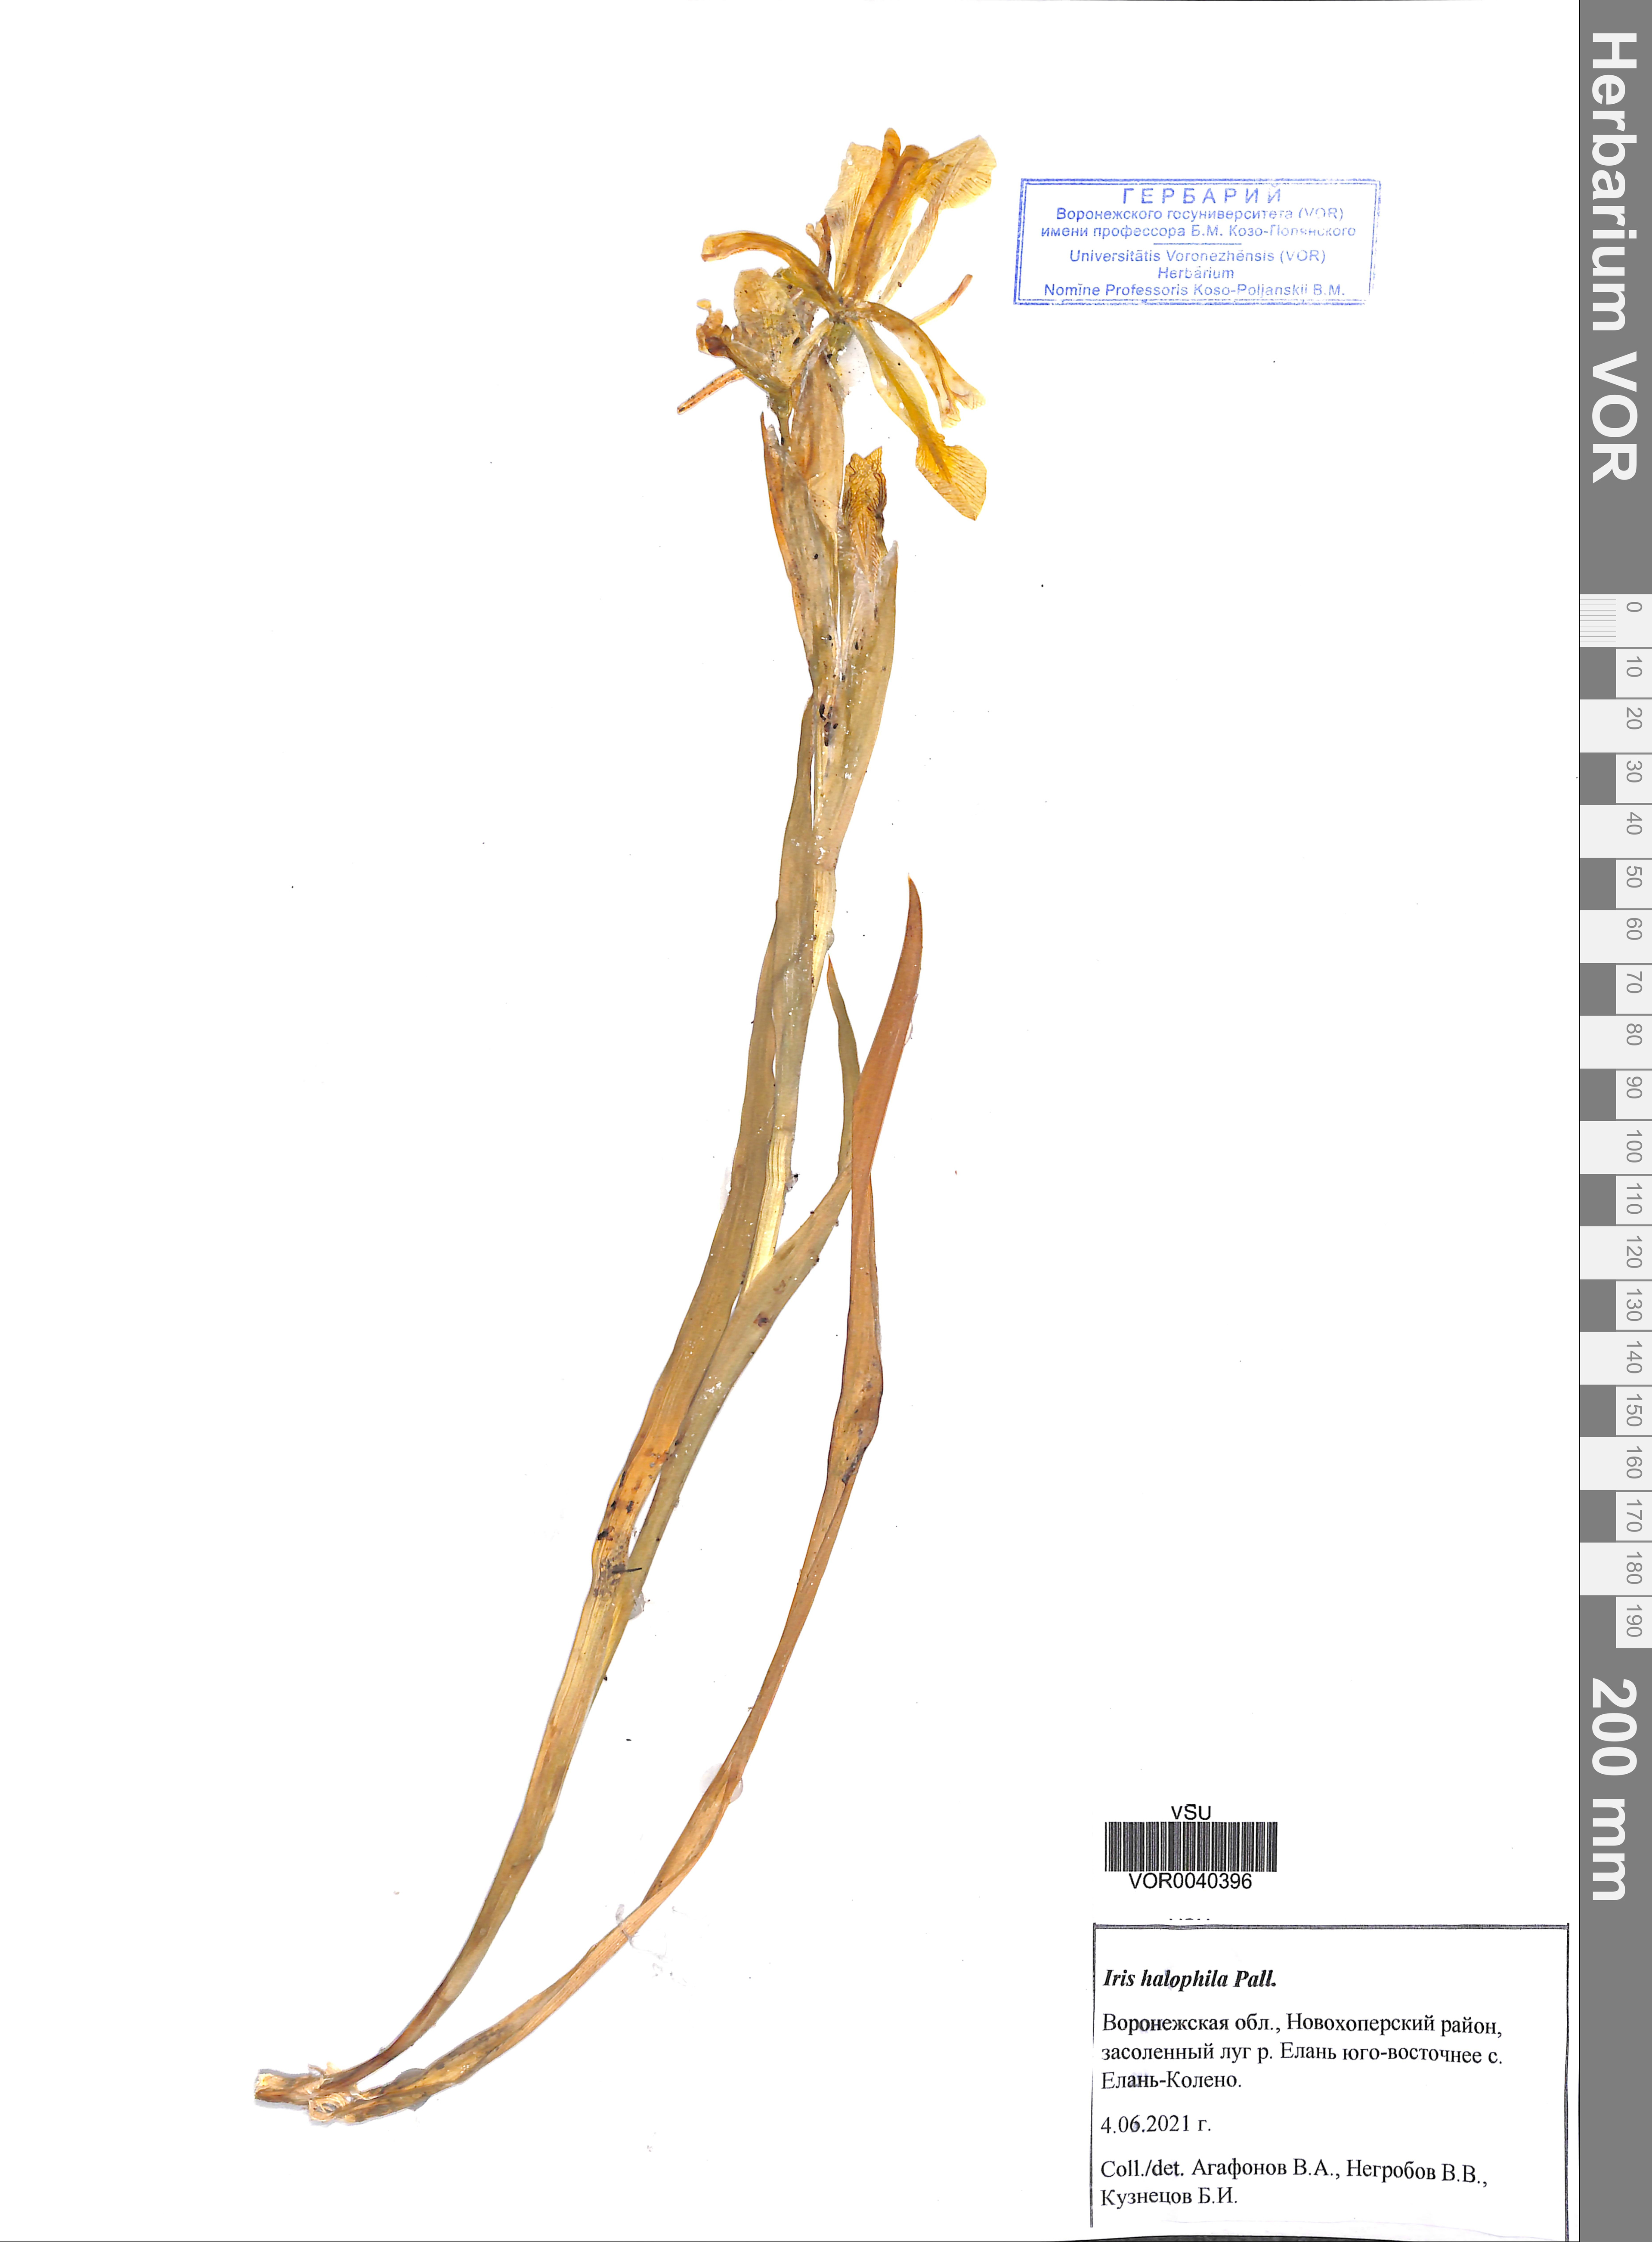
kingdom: Plantae
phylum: Tracheophyta
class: Liliopsida
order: Asparagales
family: Iridaceae
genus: Iris
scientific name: Iris halophila
